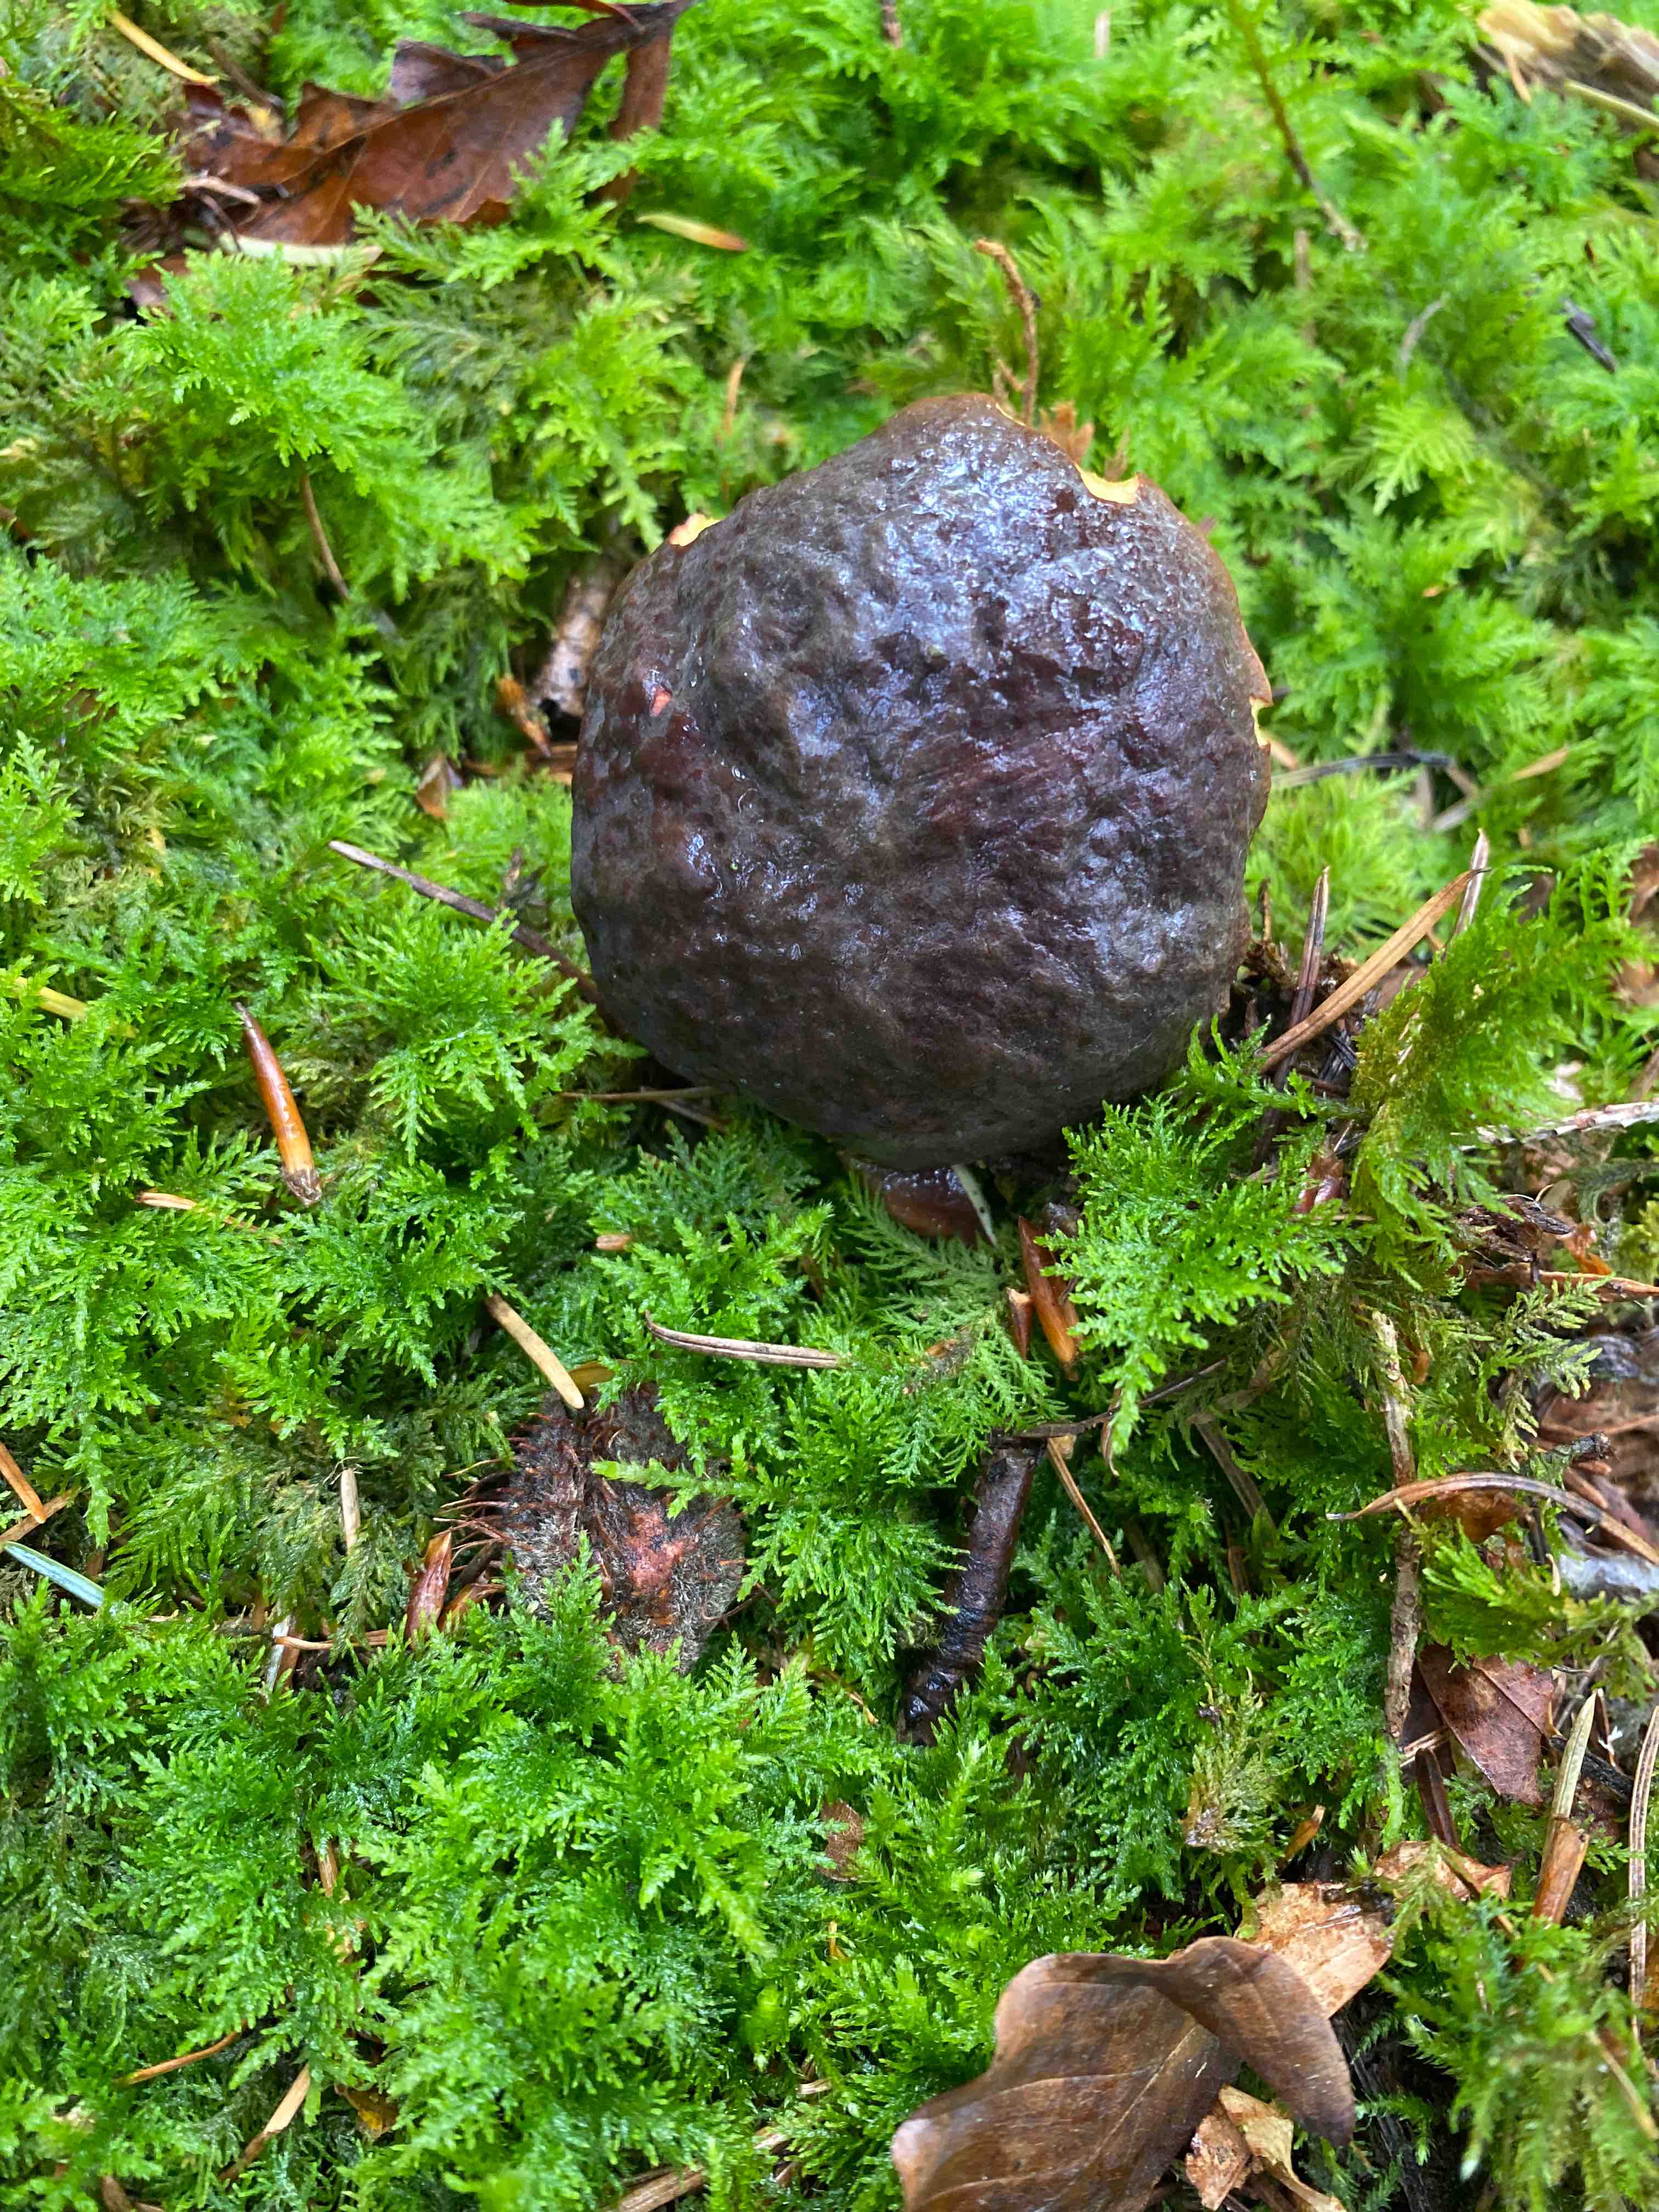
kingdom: Fungi
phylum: Basidiomycota
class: Agaricomycetes
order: Boletales
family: Boletaceae
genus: Xerocomellus
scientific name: Xerocomellus pruinatus
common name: dugget rørhat
